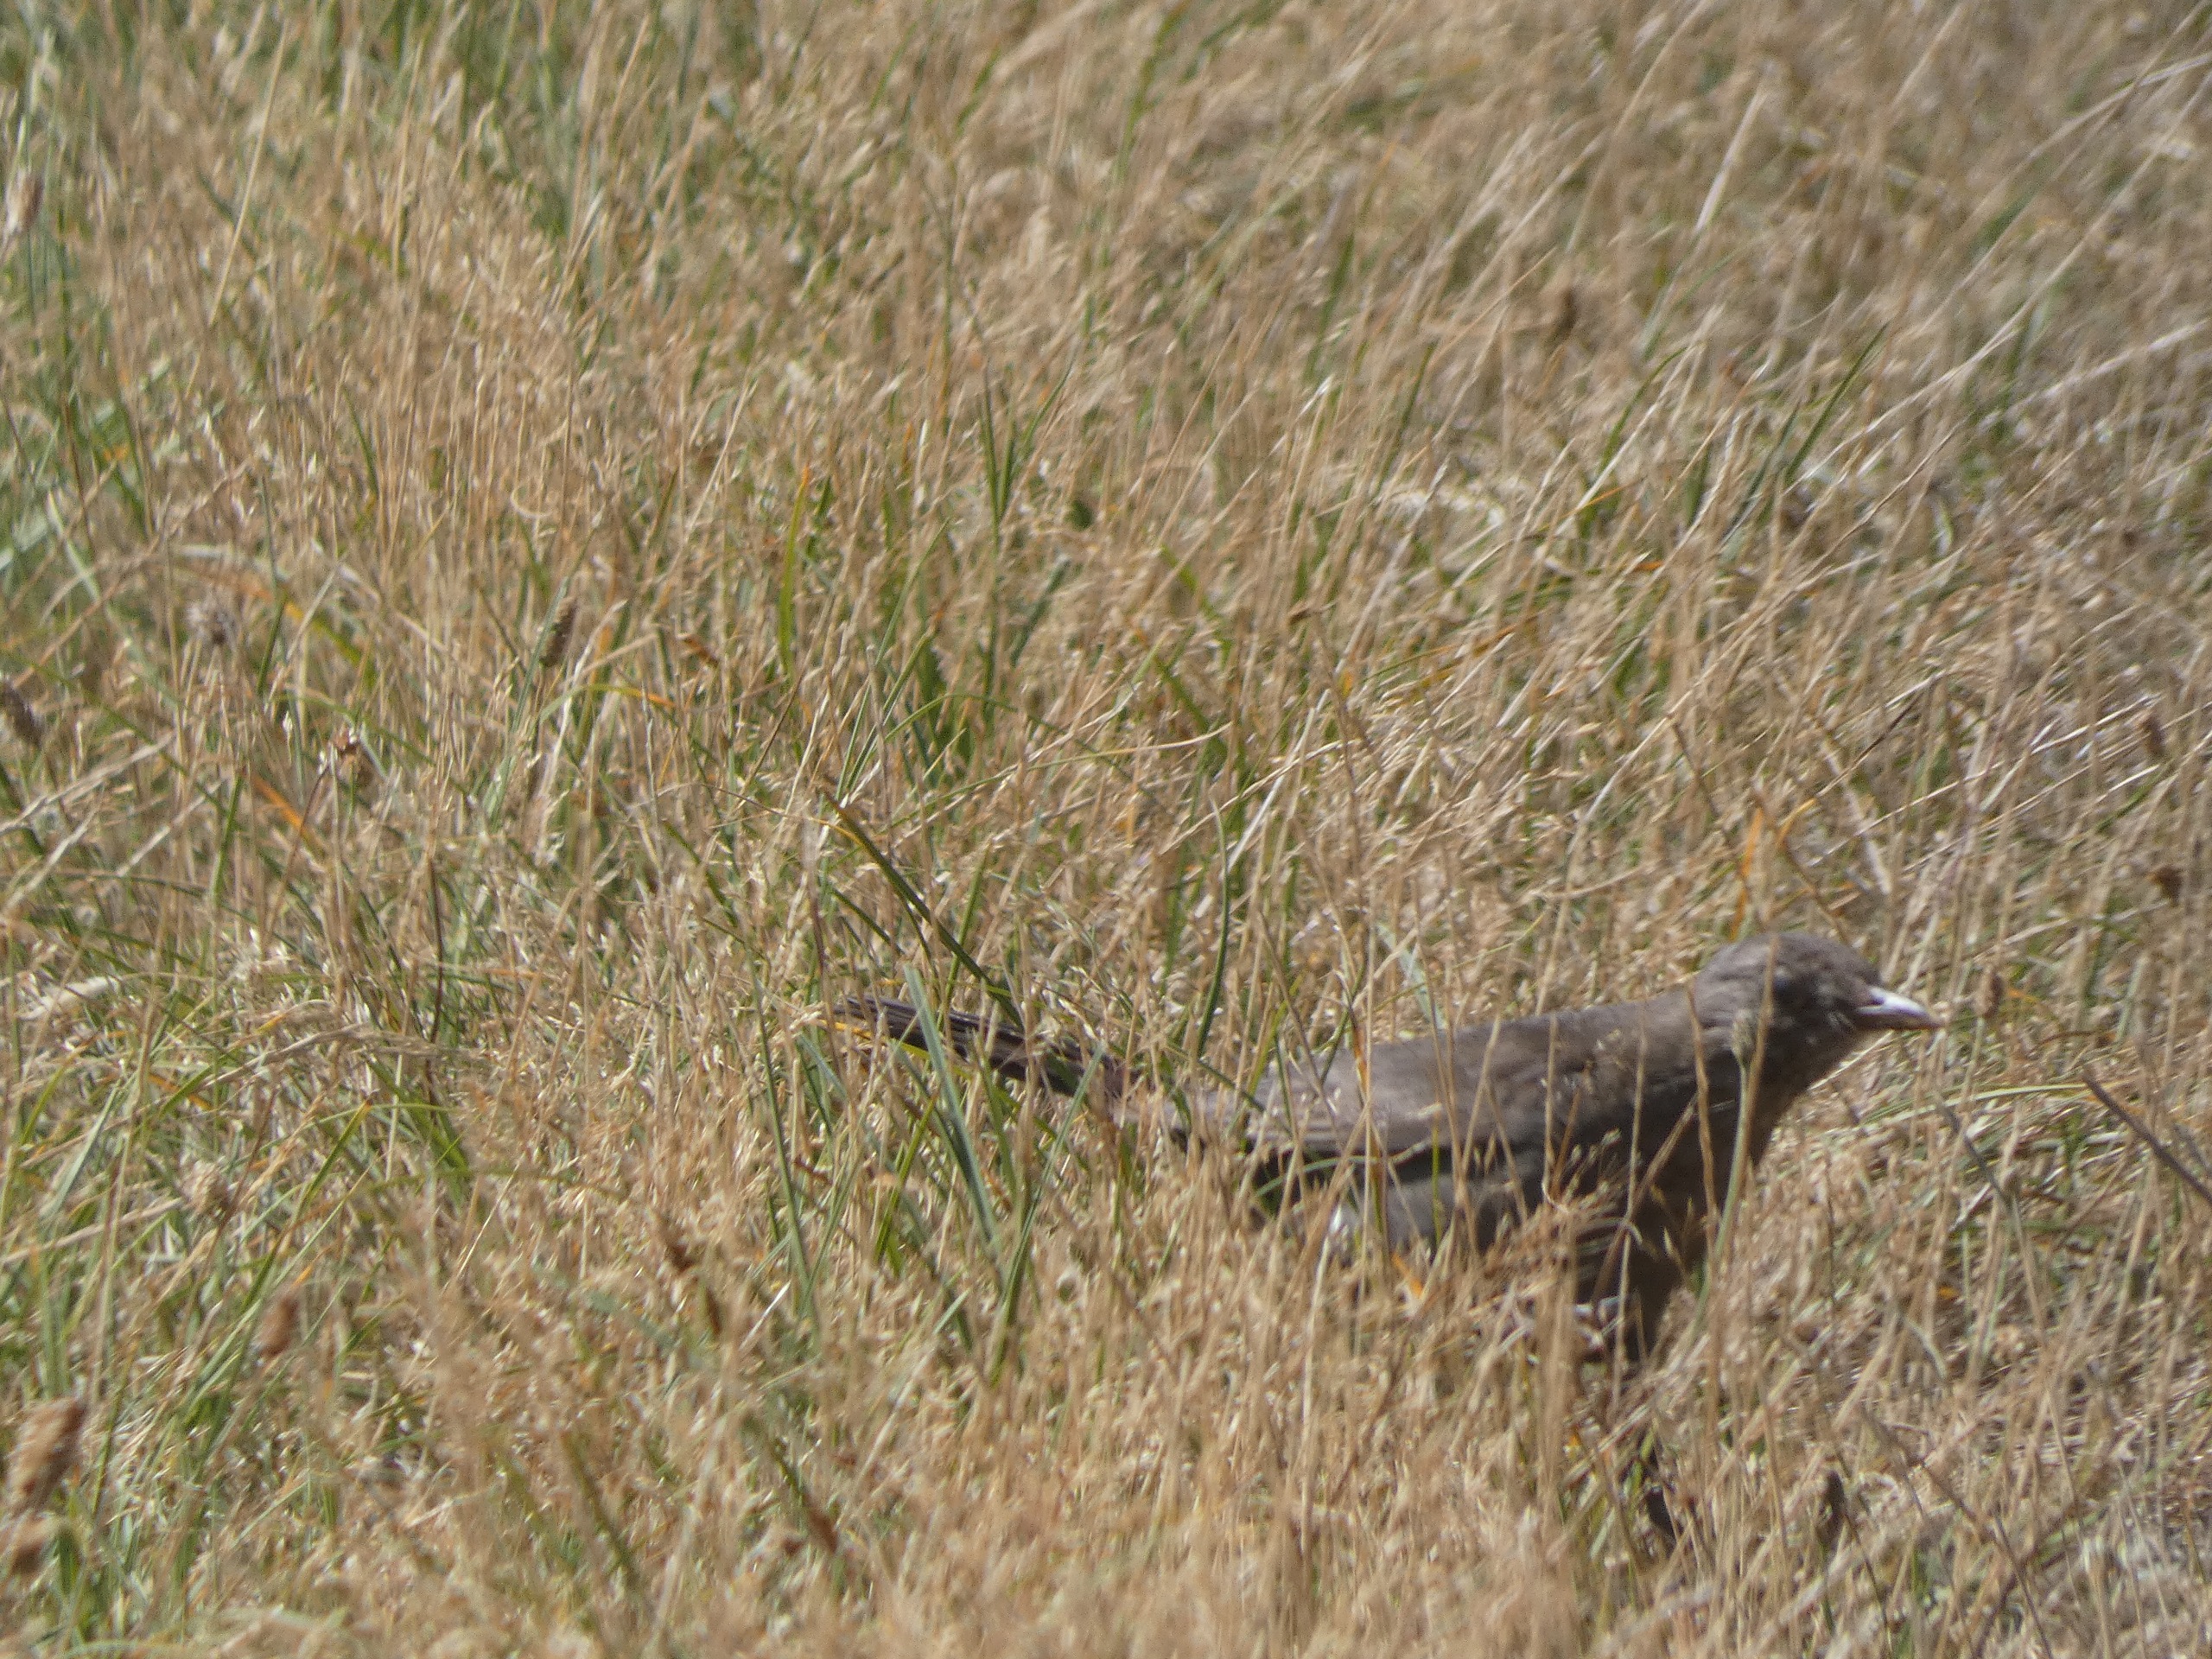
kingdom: Animalia
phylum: Chordata
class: Aves
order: Passeriformes
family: Turdidae
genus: Turdus
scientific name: Turdus merula
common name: Solsort
